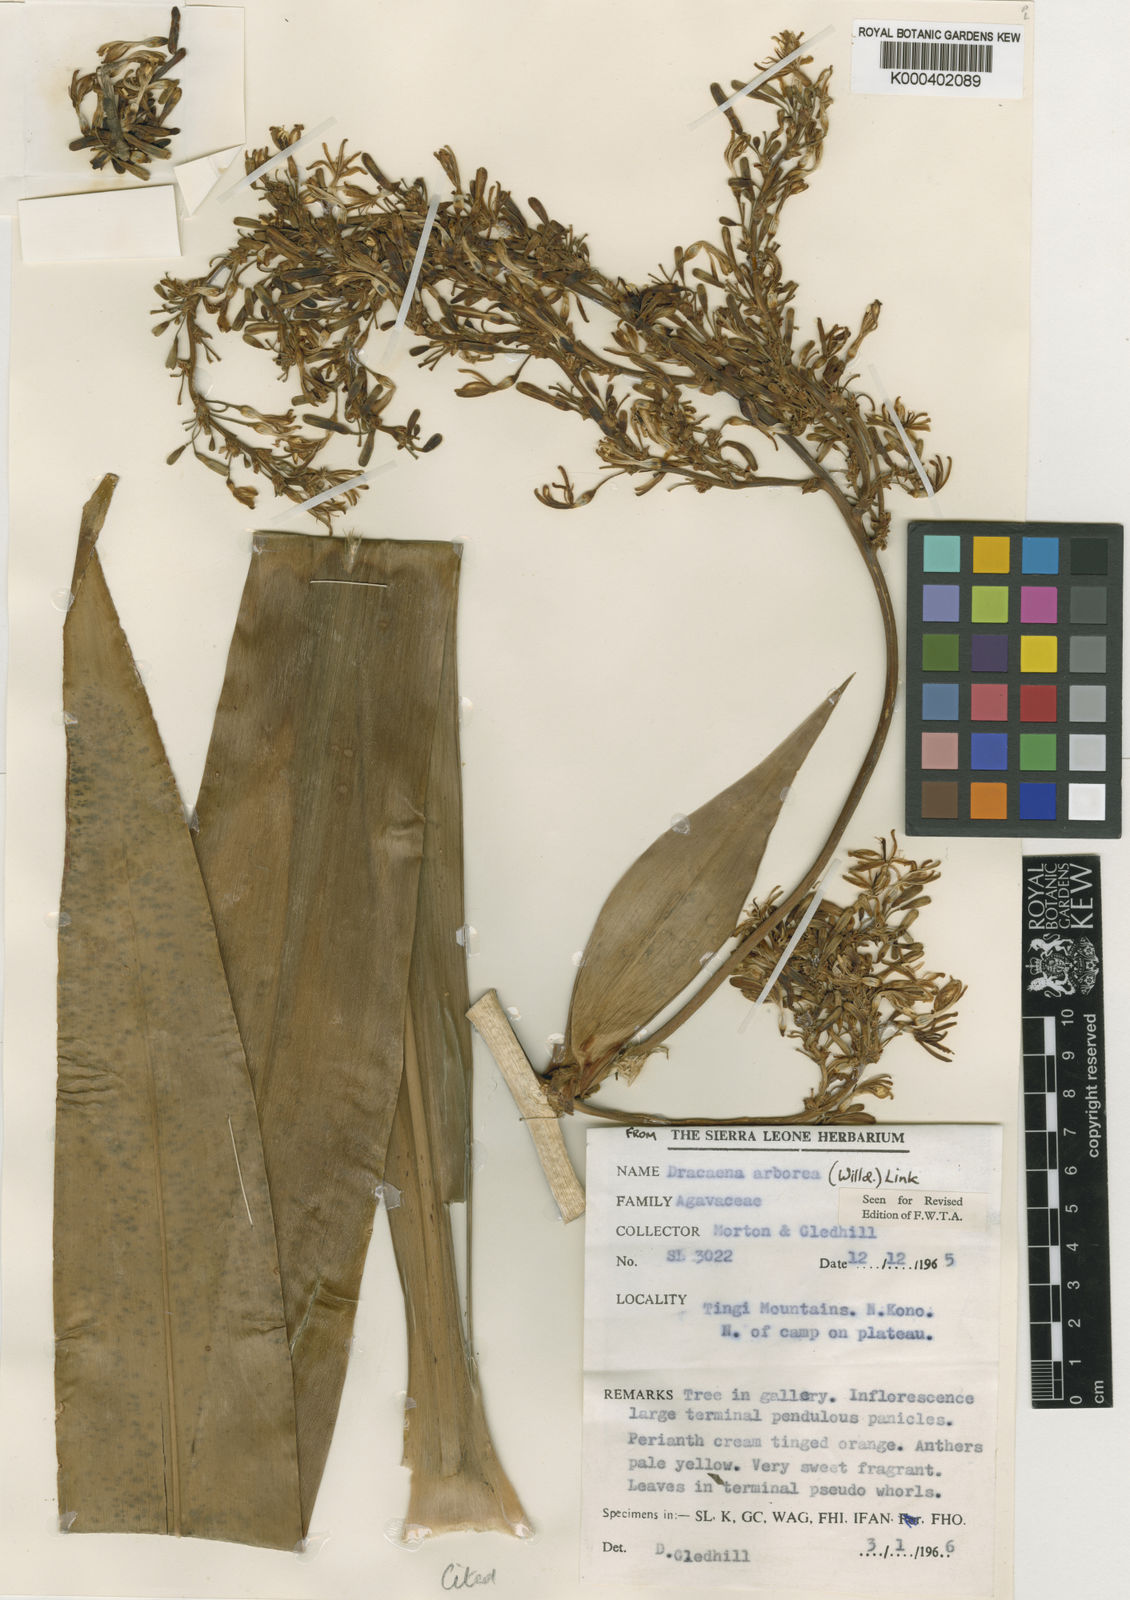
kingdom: Plantae
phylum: Tracheophyta
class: Liliopsida
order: Asparagales
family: Asparagaceae
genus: Dracaena
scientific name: Dracaena arborea
